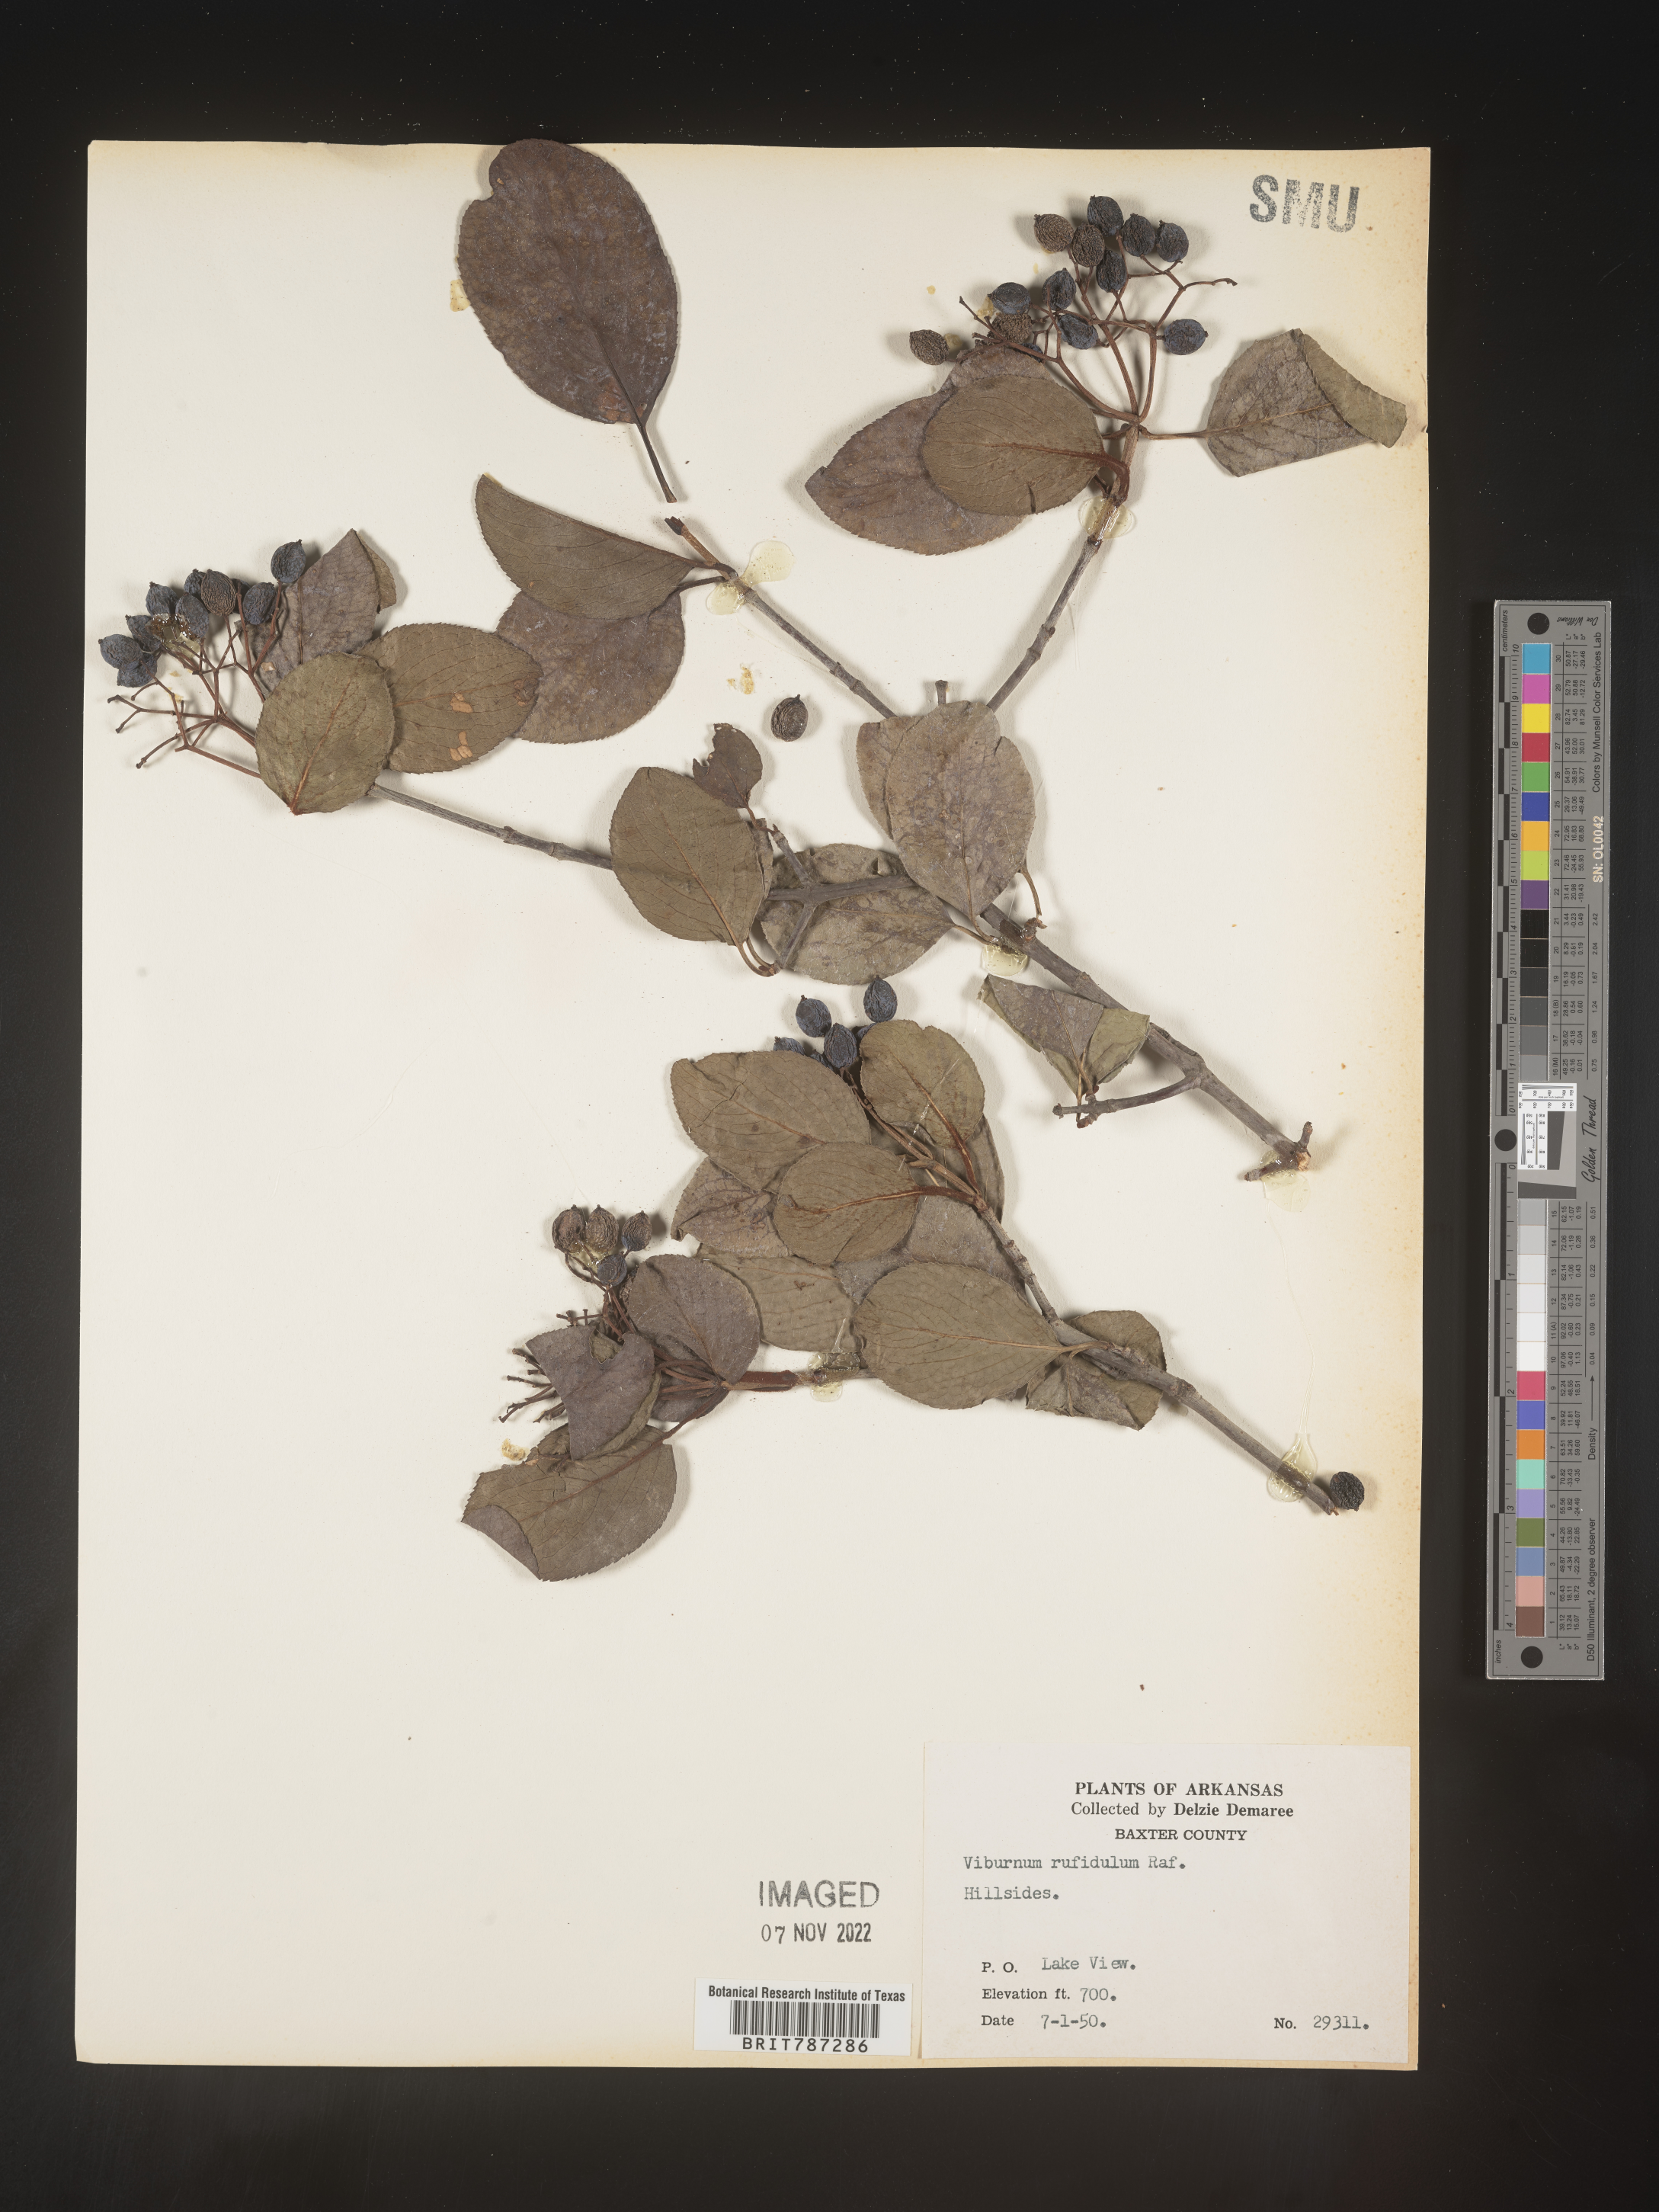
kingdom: Plantae
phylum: Tracheophyta
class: Magnoliopsida
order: Dipsacales
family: Viburnaceae
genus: Viburnum
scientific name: Viburnum rufidulum
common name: Blue haw
